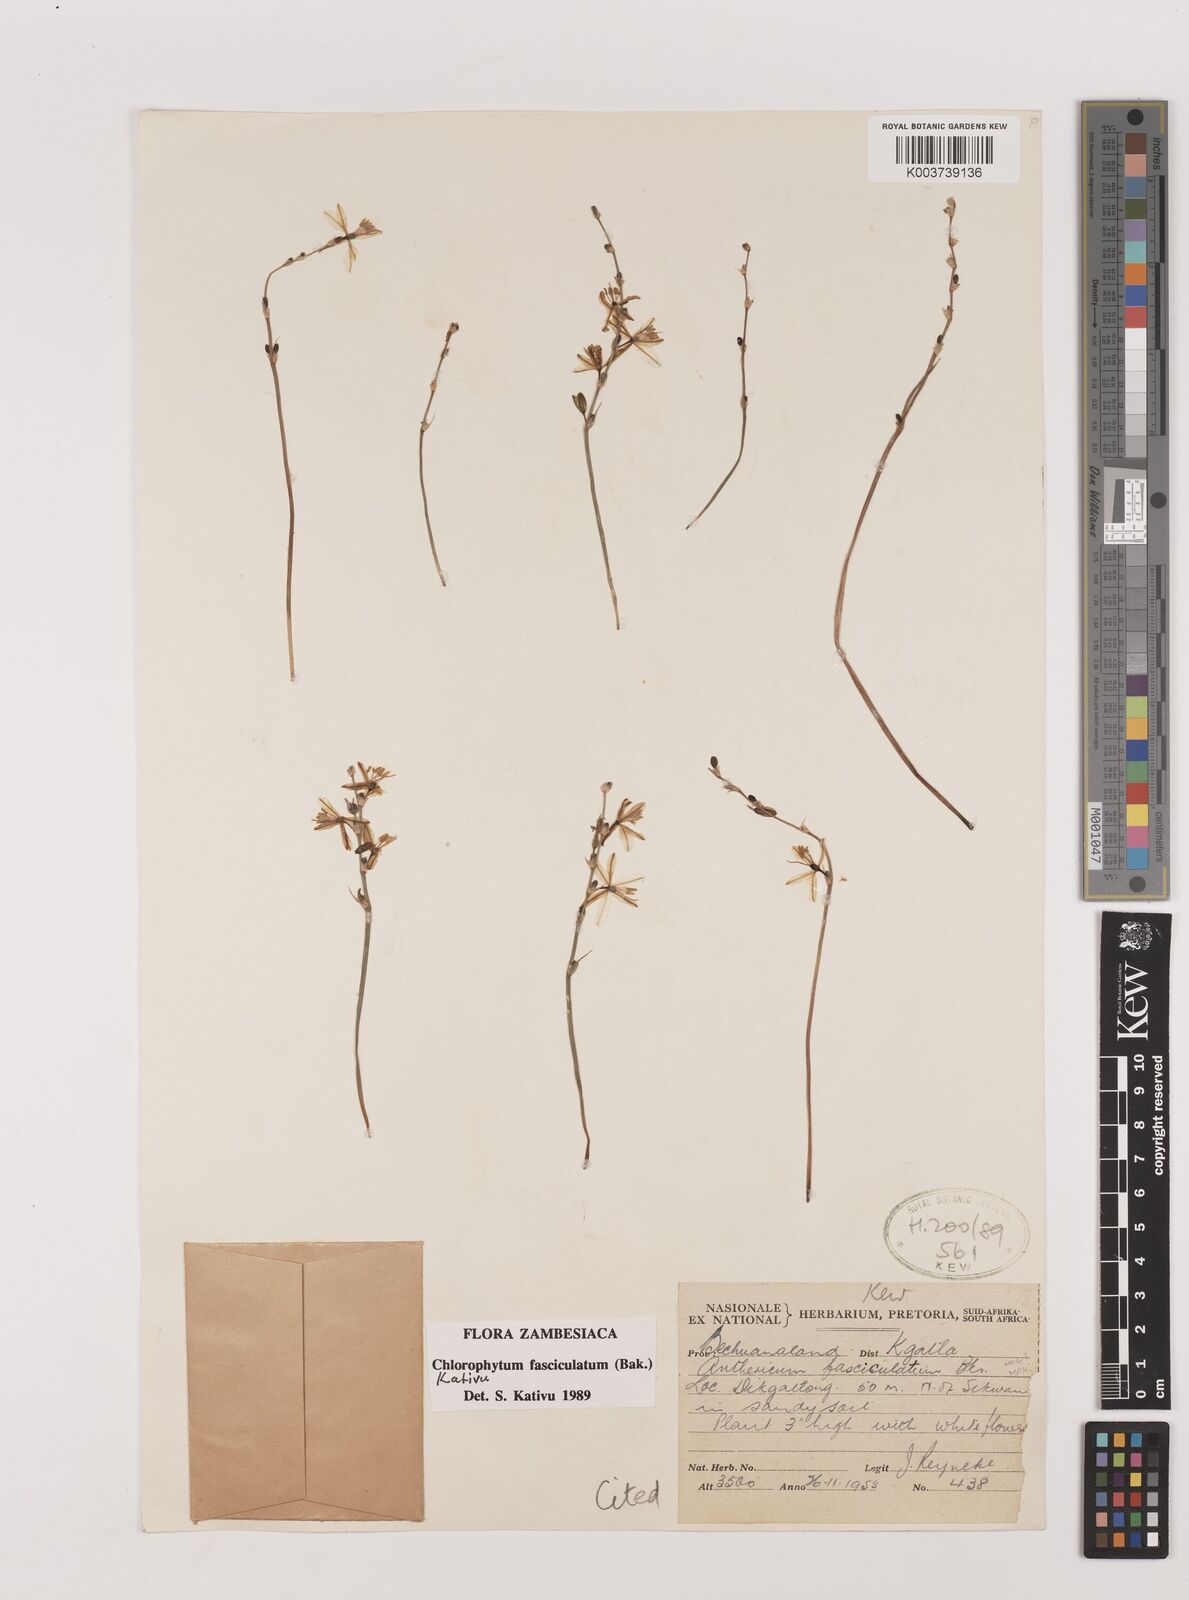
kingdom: Plantae
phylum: Tracheophyta
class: Liliopsida
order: Asparagales
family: Asparagaceae
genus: Chlorophytum
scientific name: Chlorophytum fasciculatum
